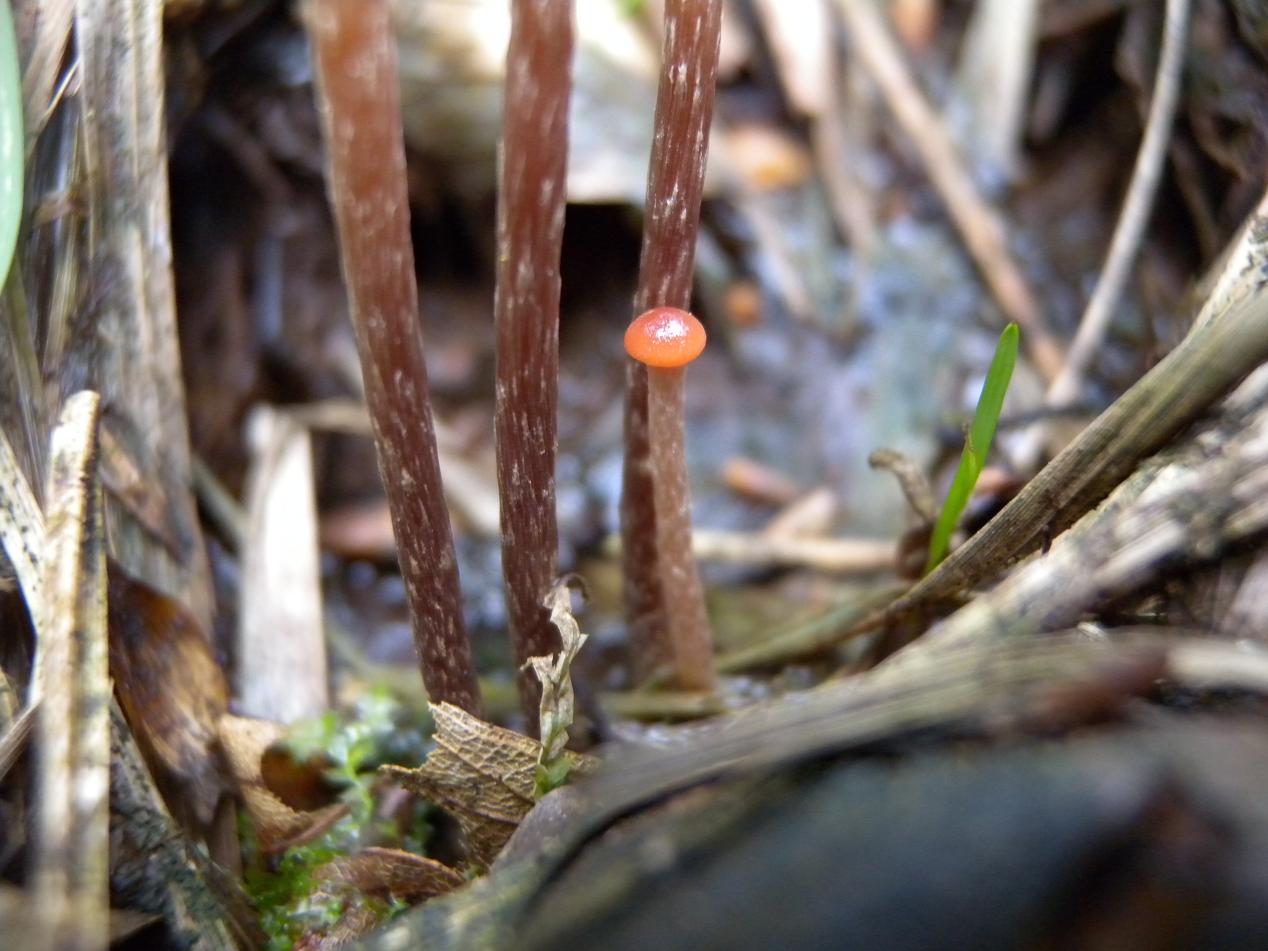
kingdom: Fungi
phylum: Basidiomycota
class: Agaricomycetes
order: Agaricales
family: Strophariaceae
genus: Bogbodia
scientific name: Bogbodia uda
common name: tørve-svovlhat
